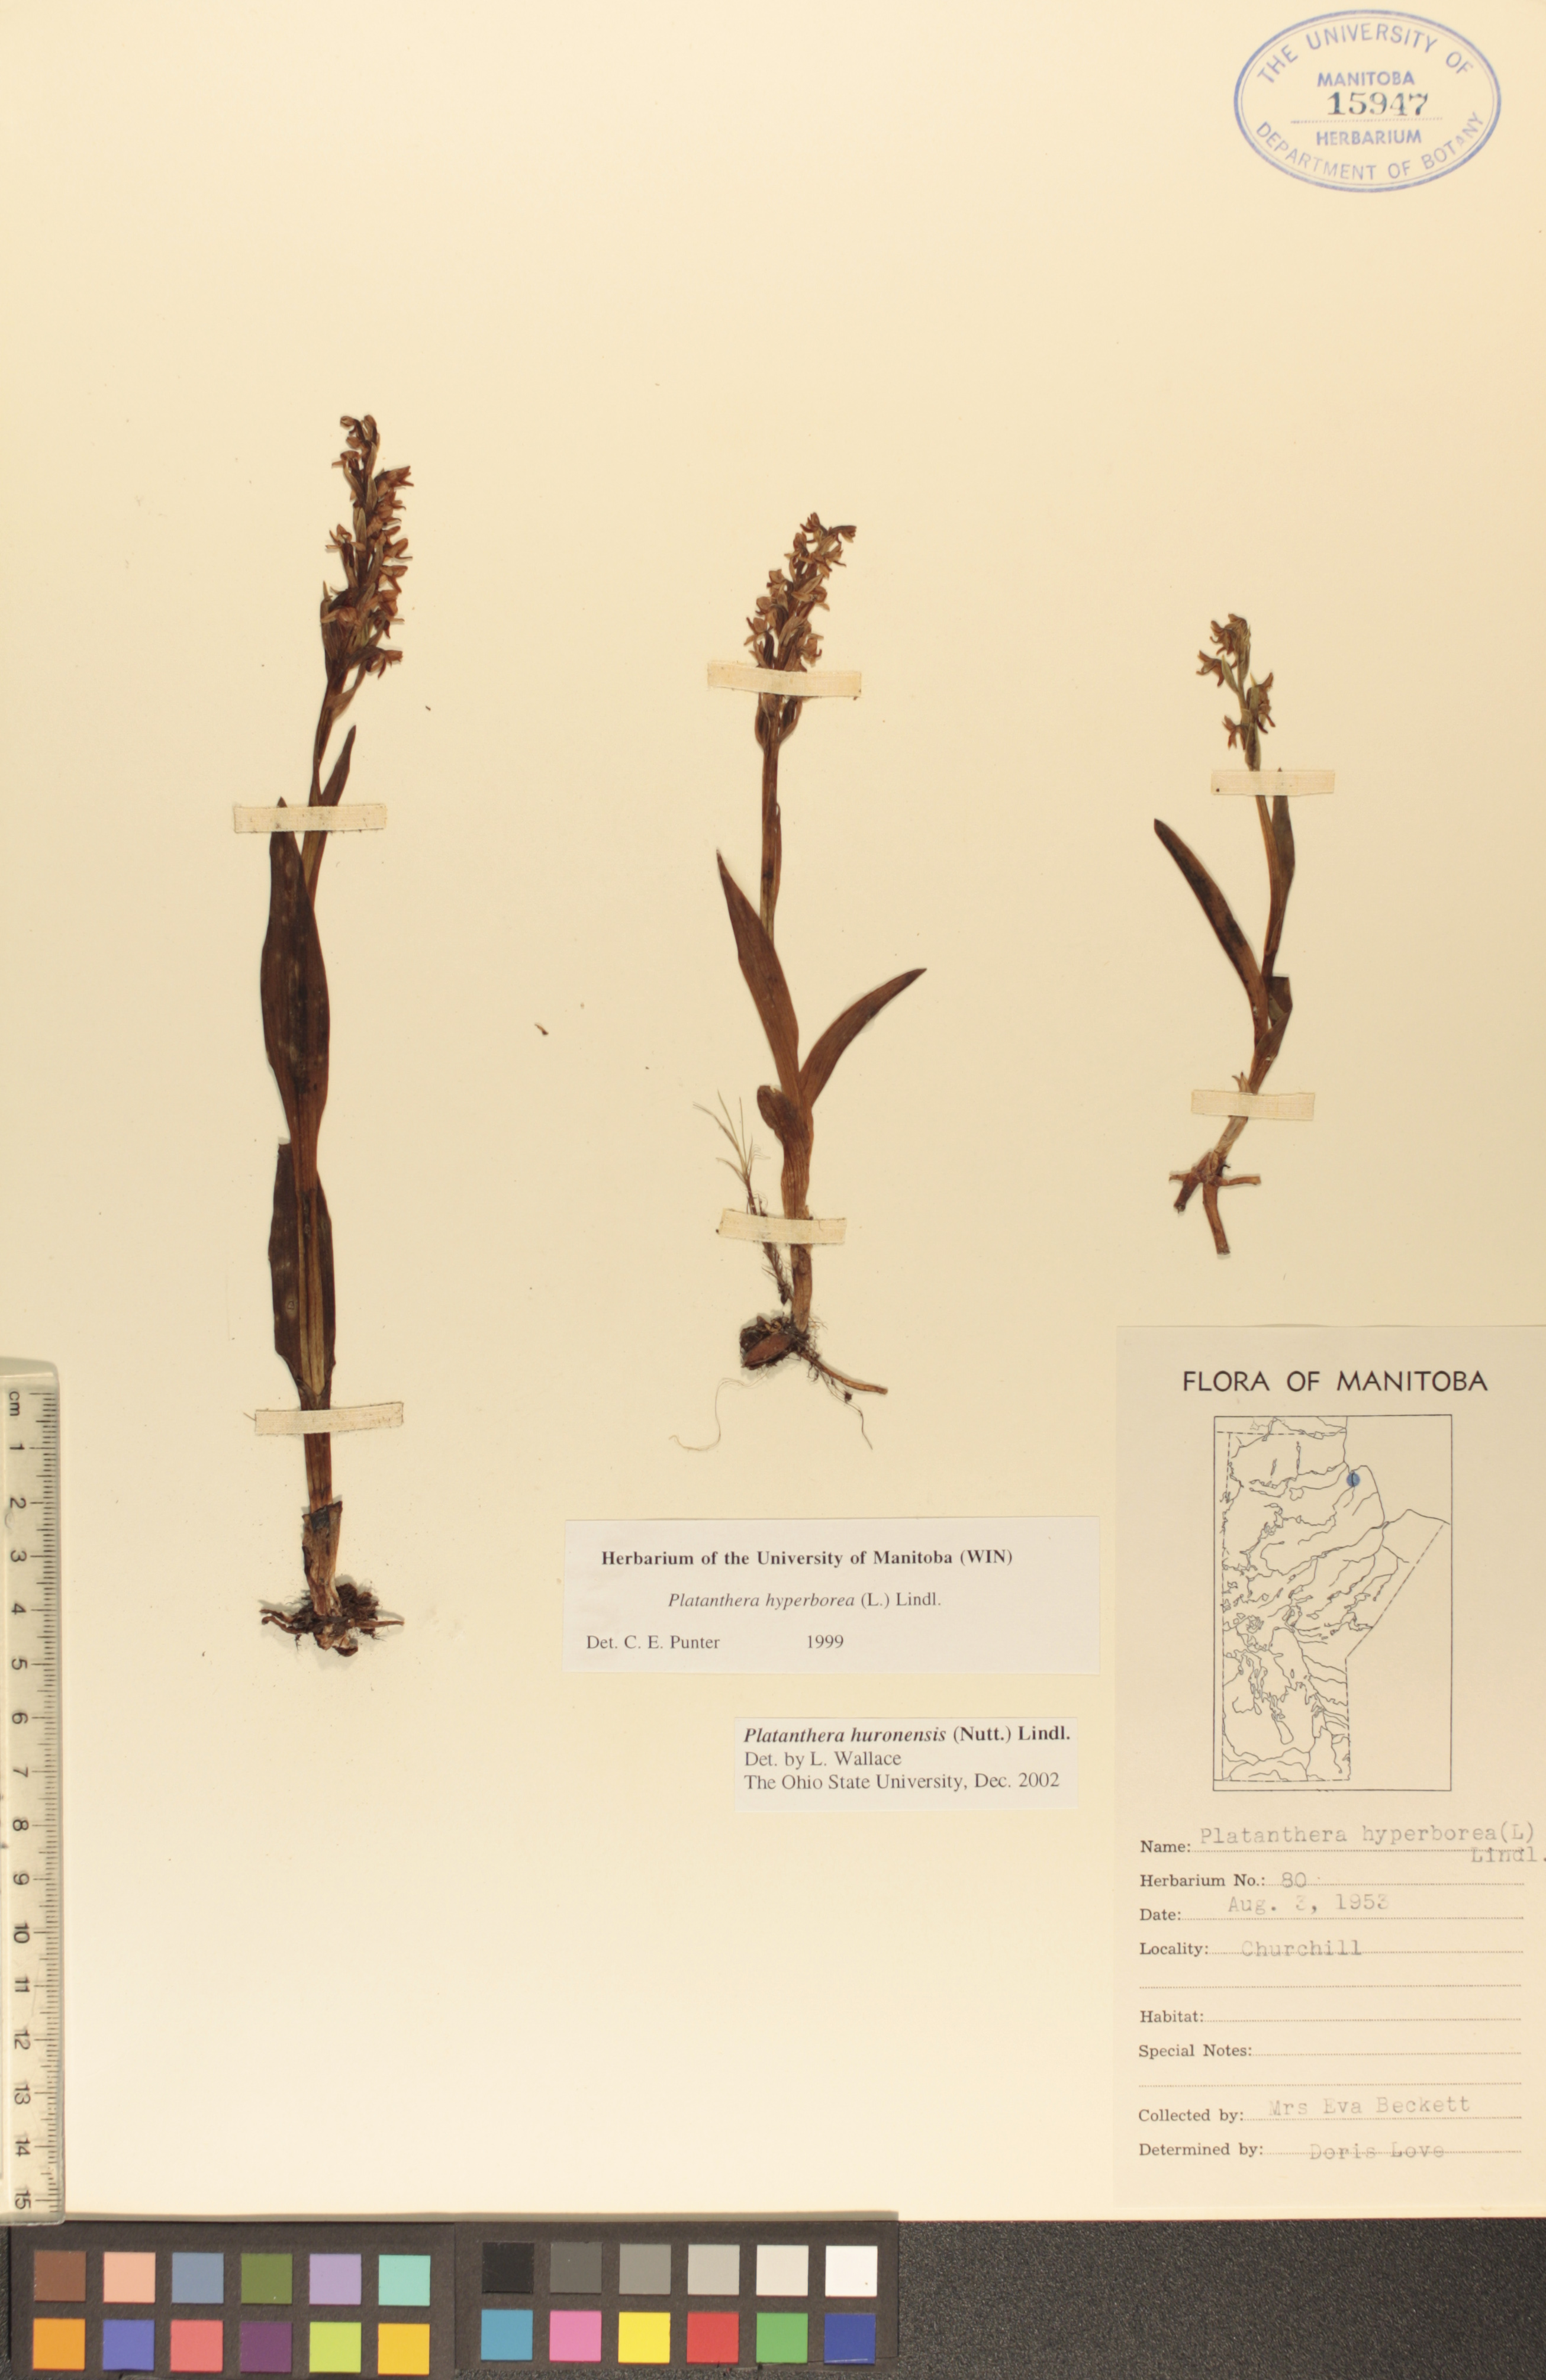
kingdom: Plantae
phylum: Tracheophyta
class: Liliopsida
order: Asparagales
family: Orchidaceae
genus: Platanthera
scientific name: Platanthera huronensis
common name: Fragrant green orchid
